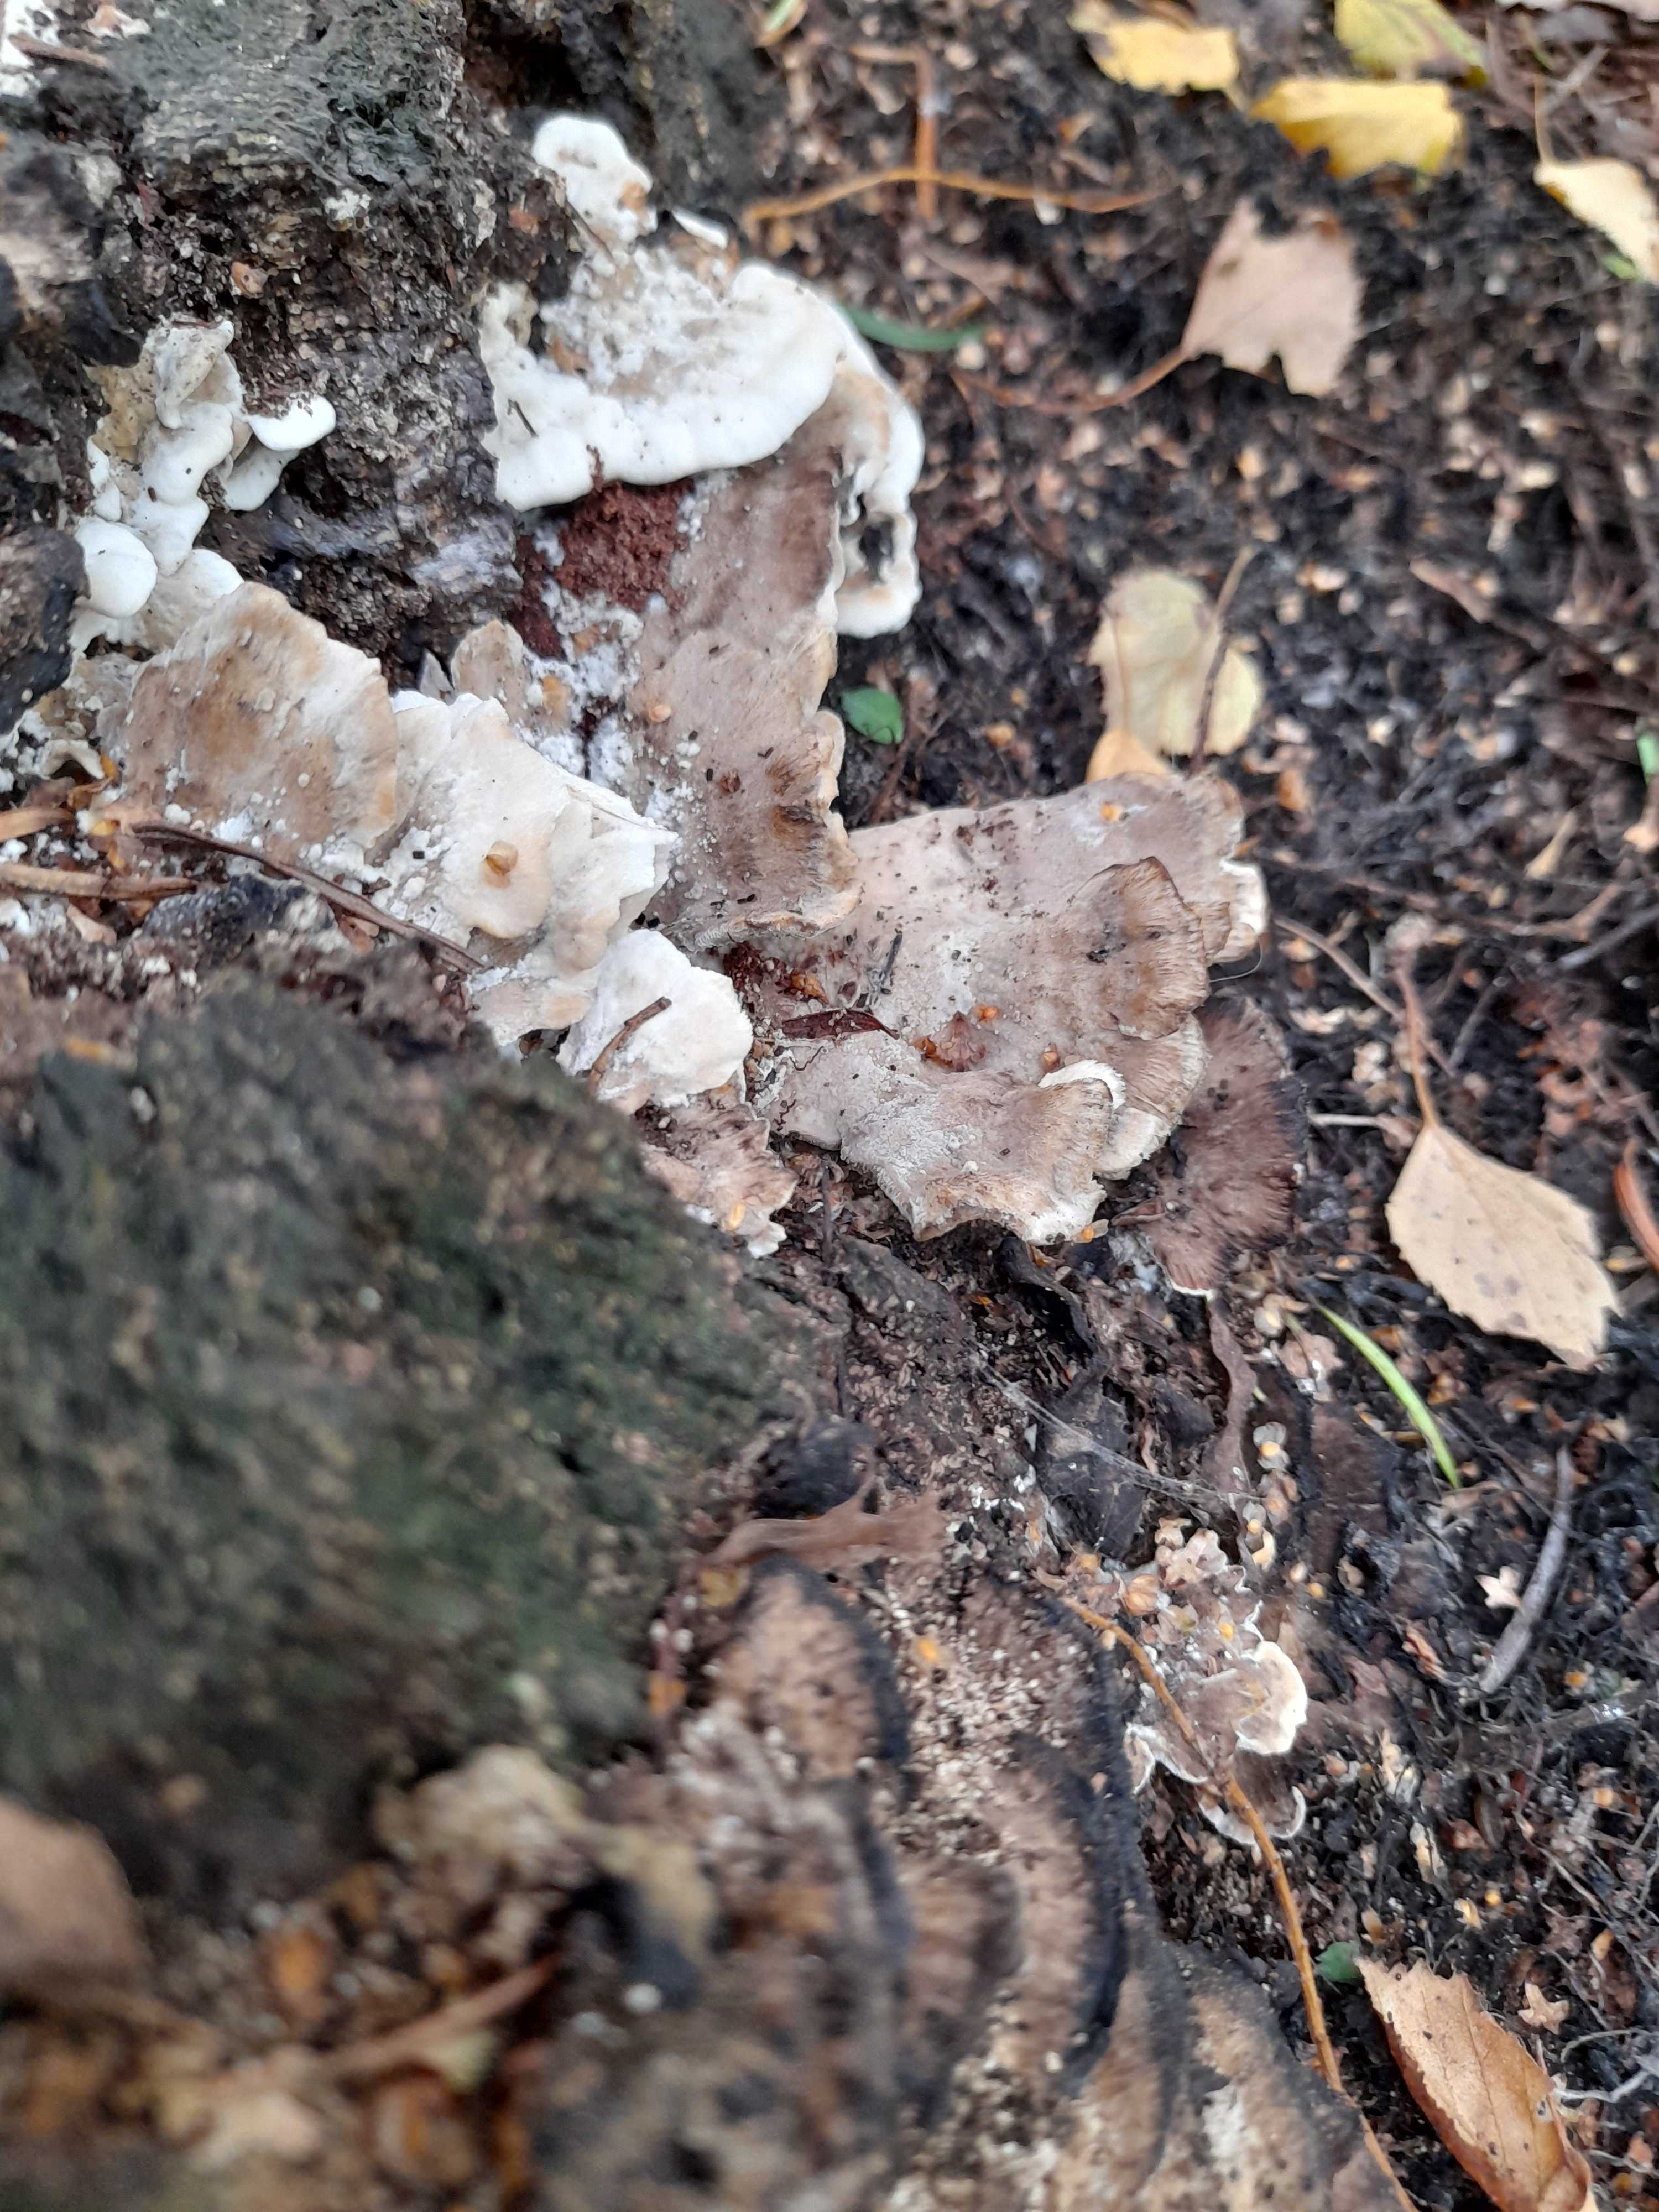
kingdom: Fungi
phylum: Basidiomycota
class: Agaricomycetes
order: Polyporales
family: Phanerochaetaceae
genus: Bjerkandera
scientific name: Bjerkandera fumosa
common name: grågul sodporesvamp
